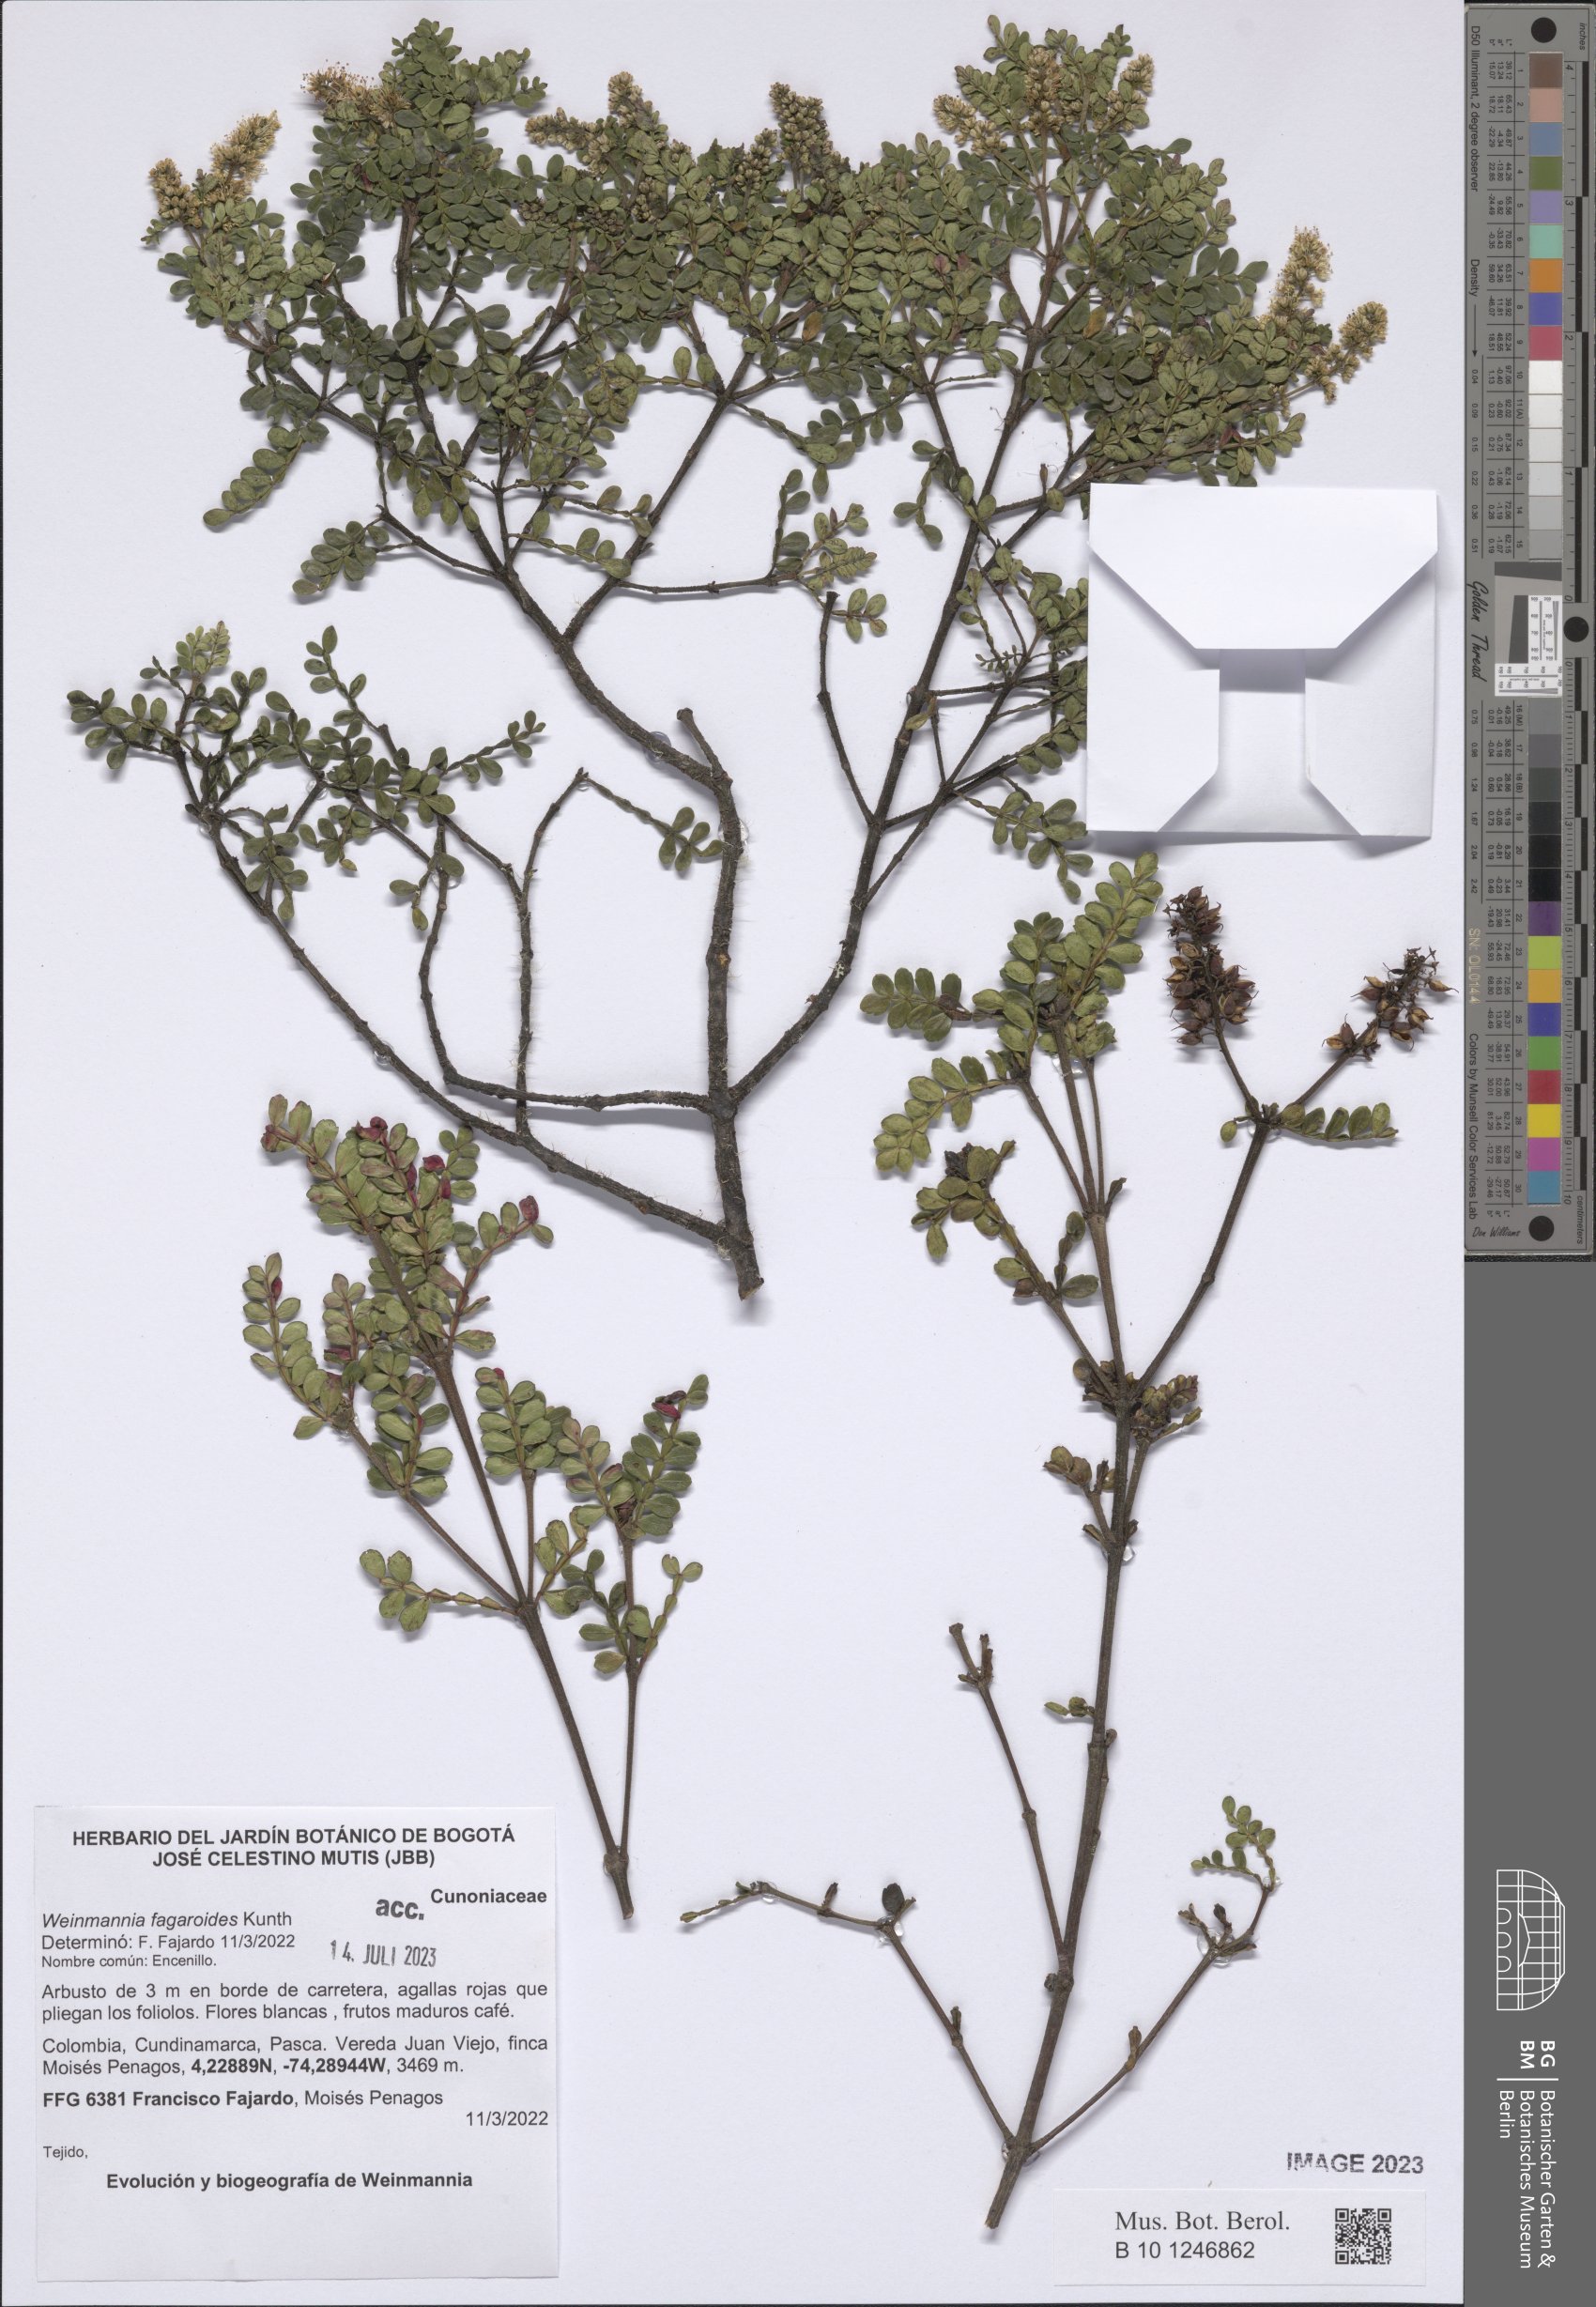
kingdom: Plantae
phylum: Tracheophyta
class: Magnoliopsida
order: Oxalidales
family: Cunoniaceae
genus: Weinmannia
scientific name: Weinmannia fagaroides
